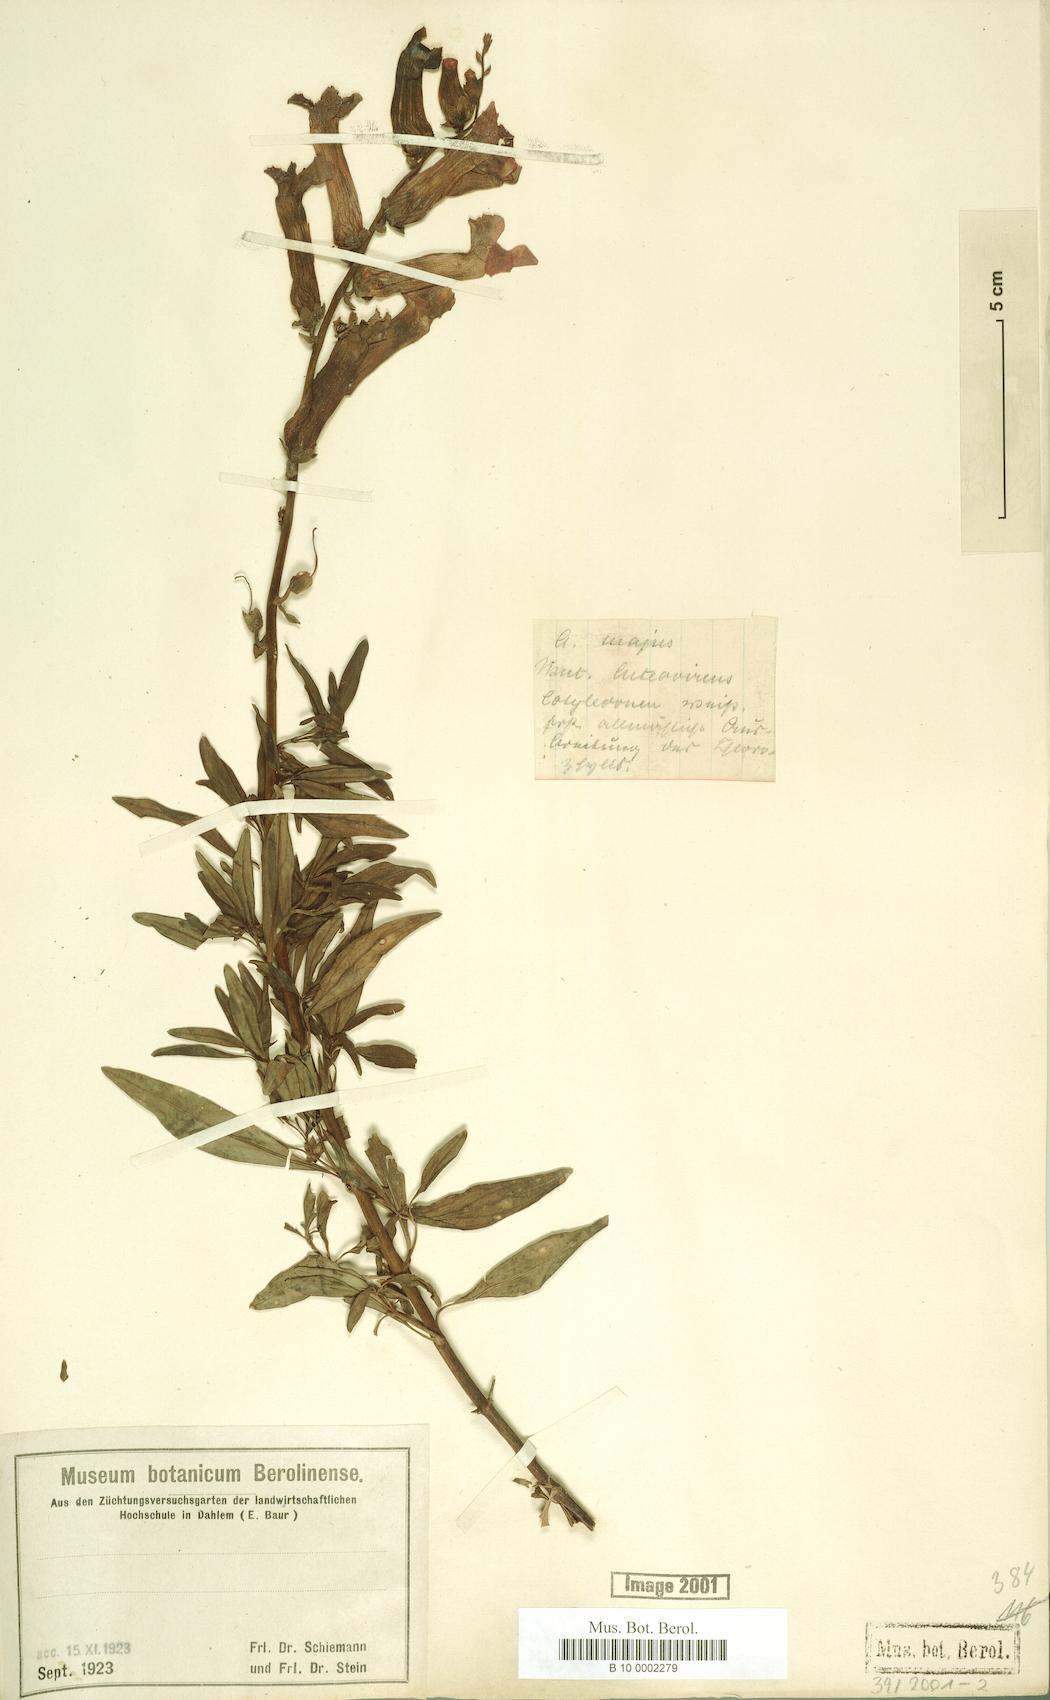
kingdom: Plantae
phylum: Tracheophyta
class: Magnoliopsida
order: Lamiales
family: Plantaginaceae
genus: Antirrhinum
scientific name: Antirrhinum majus
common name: Snapdragon
